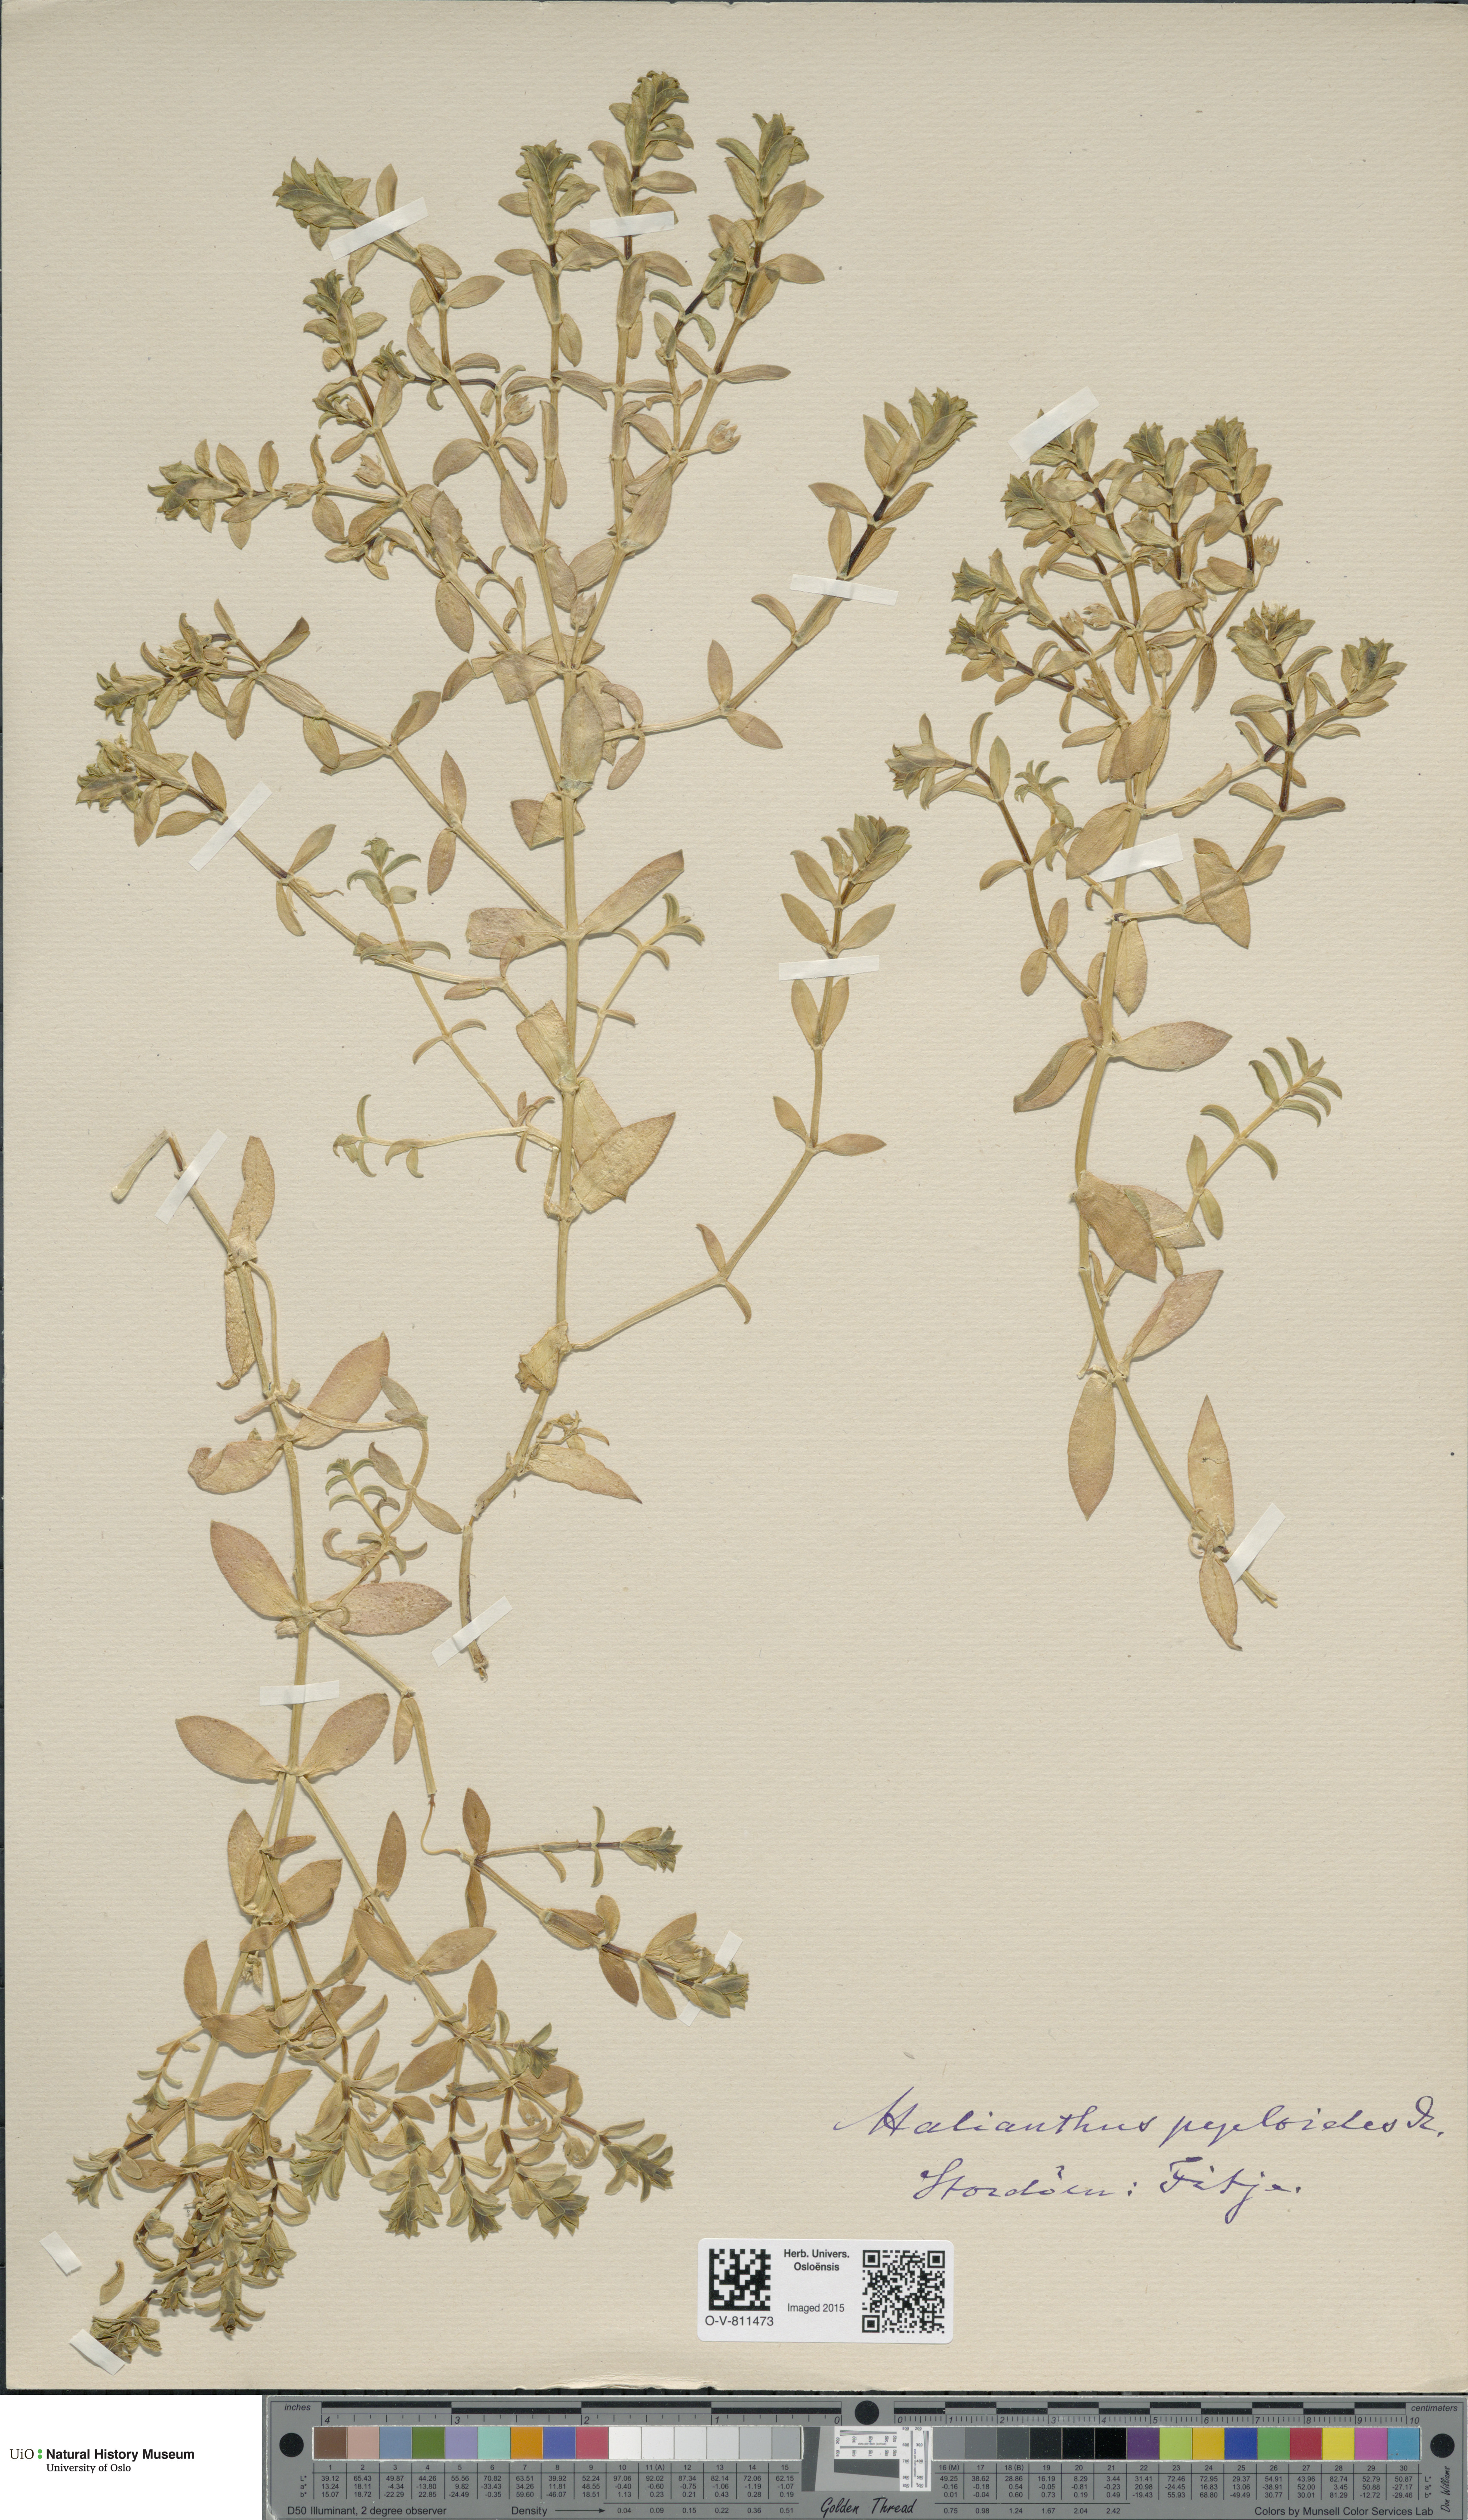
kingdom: Plantae
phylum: Tracheophyta
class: Magnoliopsida
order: Caryophyllales
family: Caryophyllaceae
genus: Honckenya
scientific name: Honckenya peploides
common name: Sea sandwort
